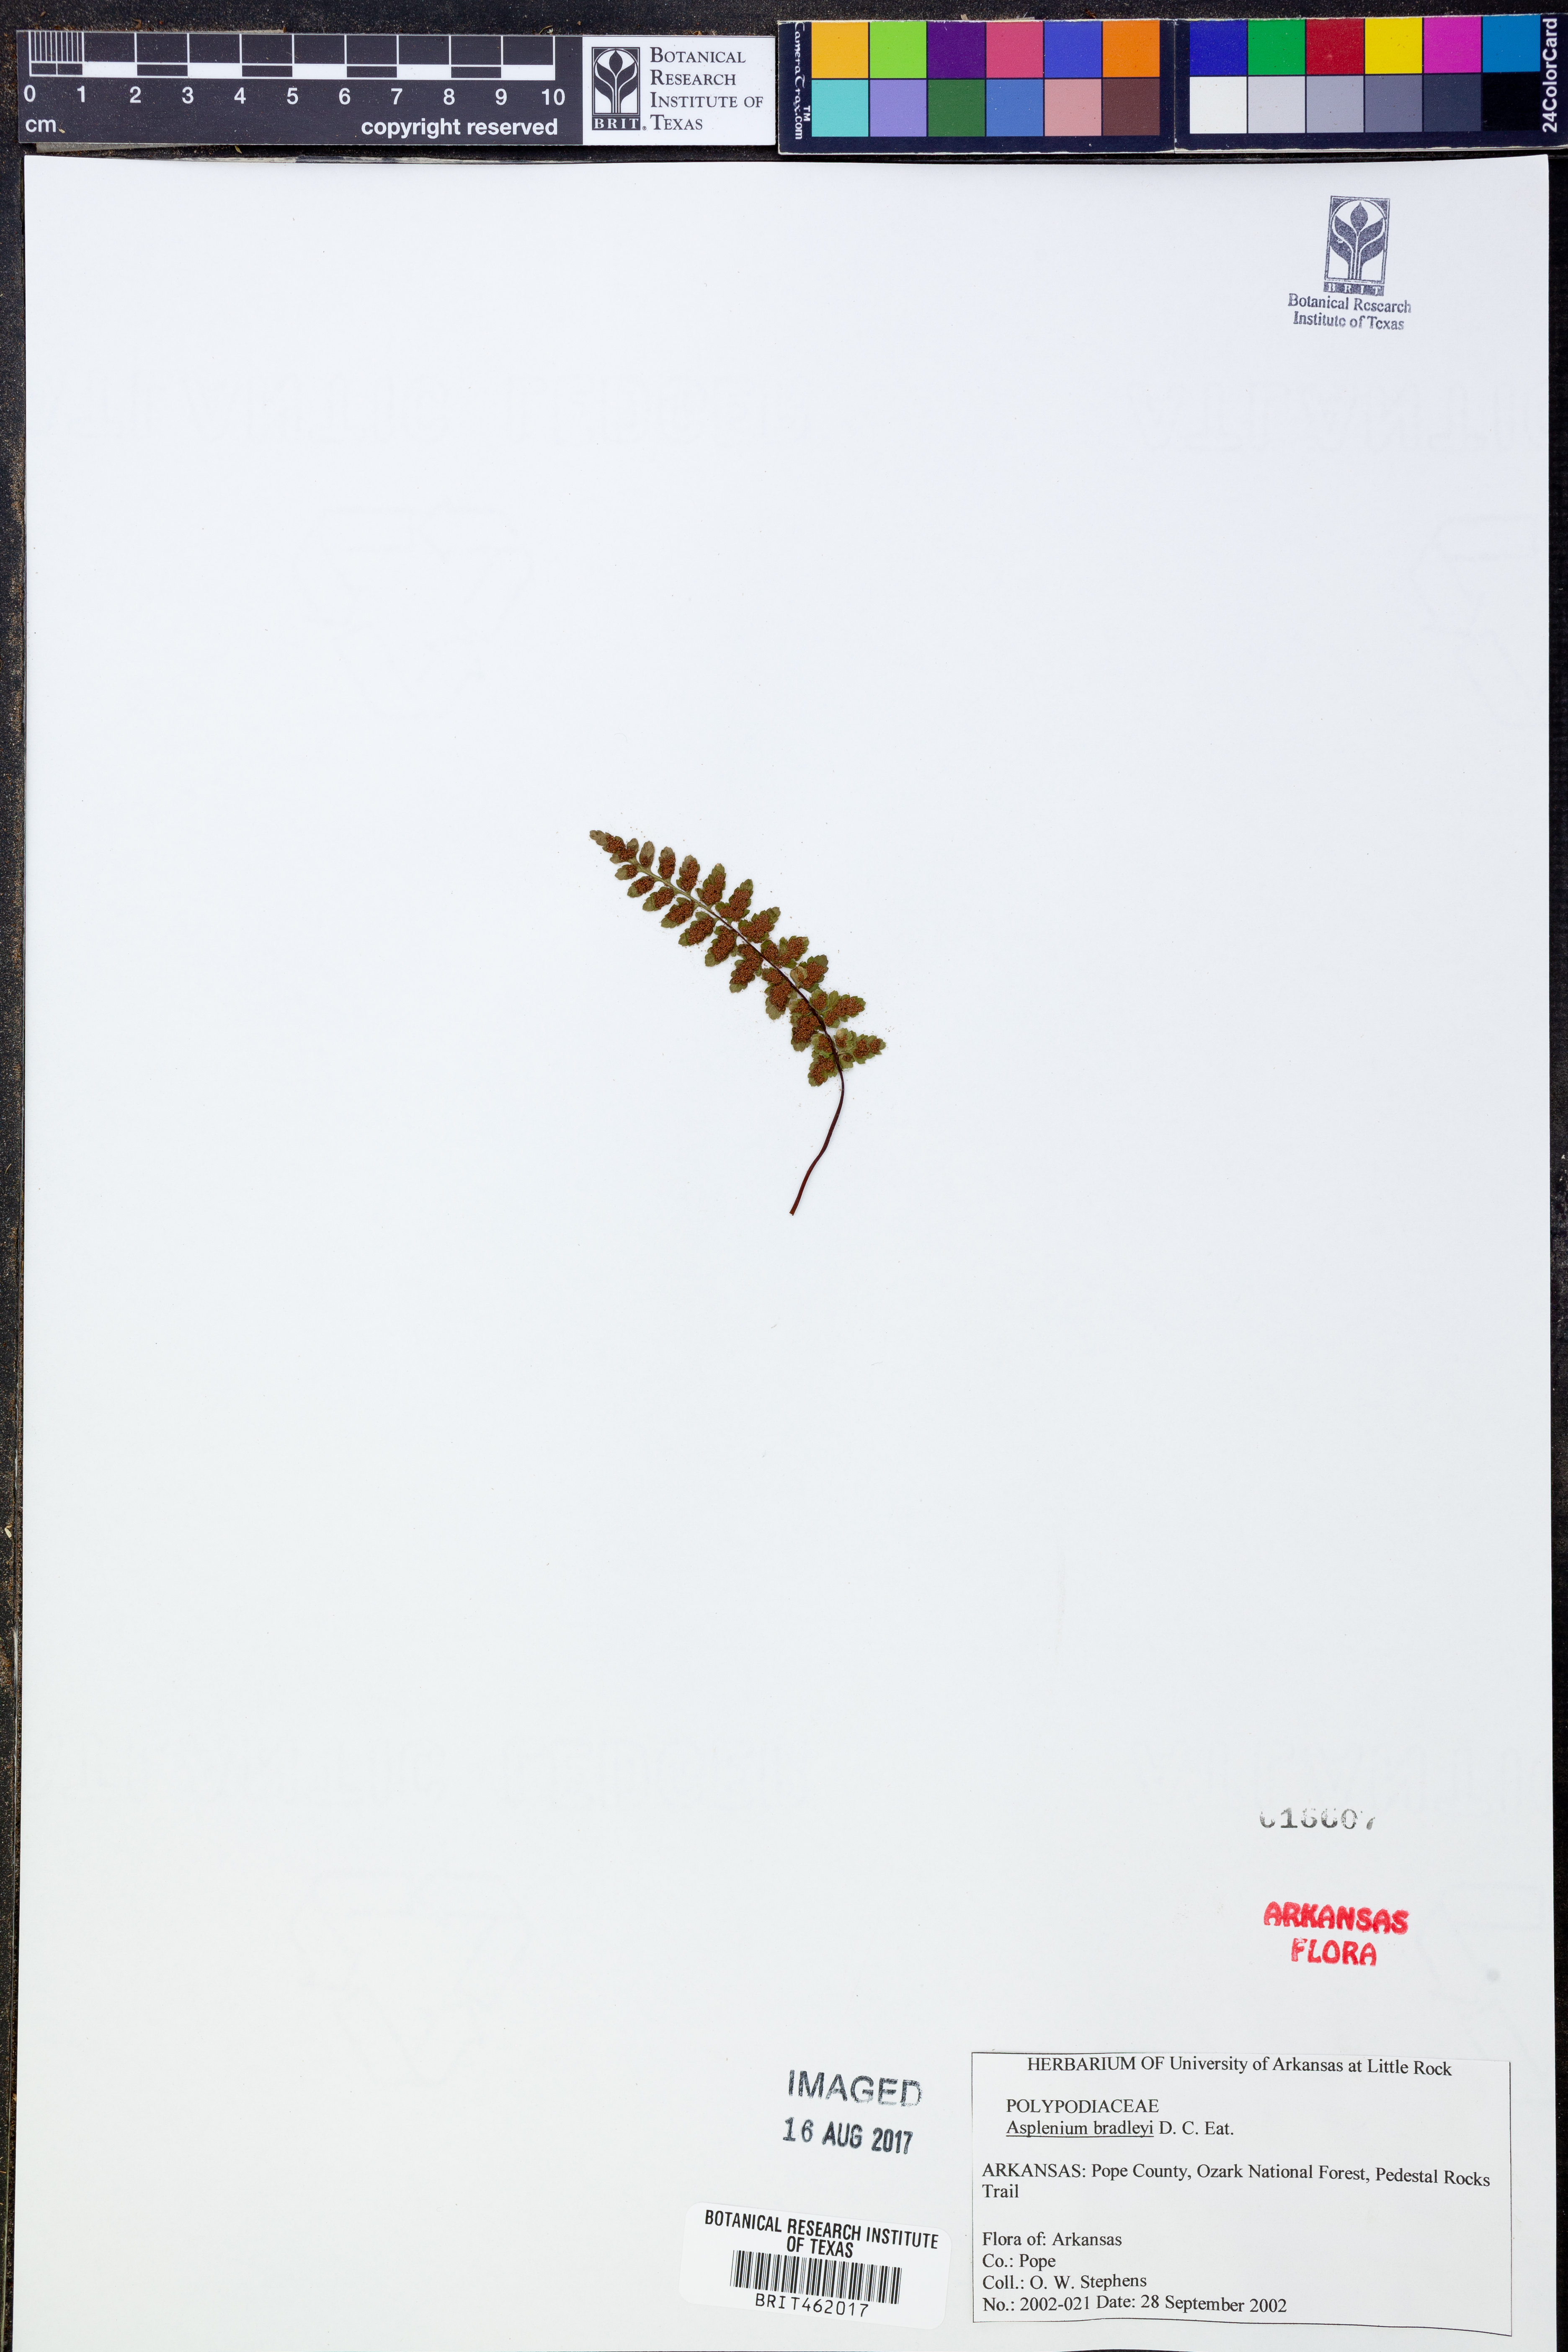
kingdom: Plantae
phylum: Tracheophyta
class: Polypodiopsida
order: Polypodiales
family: Aspleniaceae
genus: Asplenium
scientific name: Asplenium bradleyi
